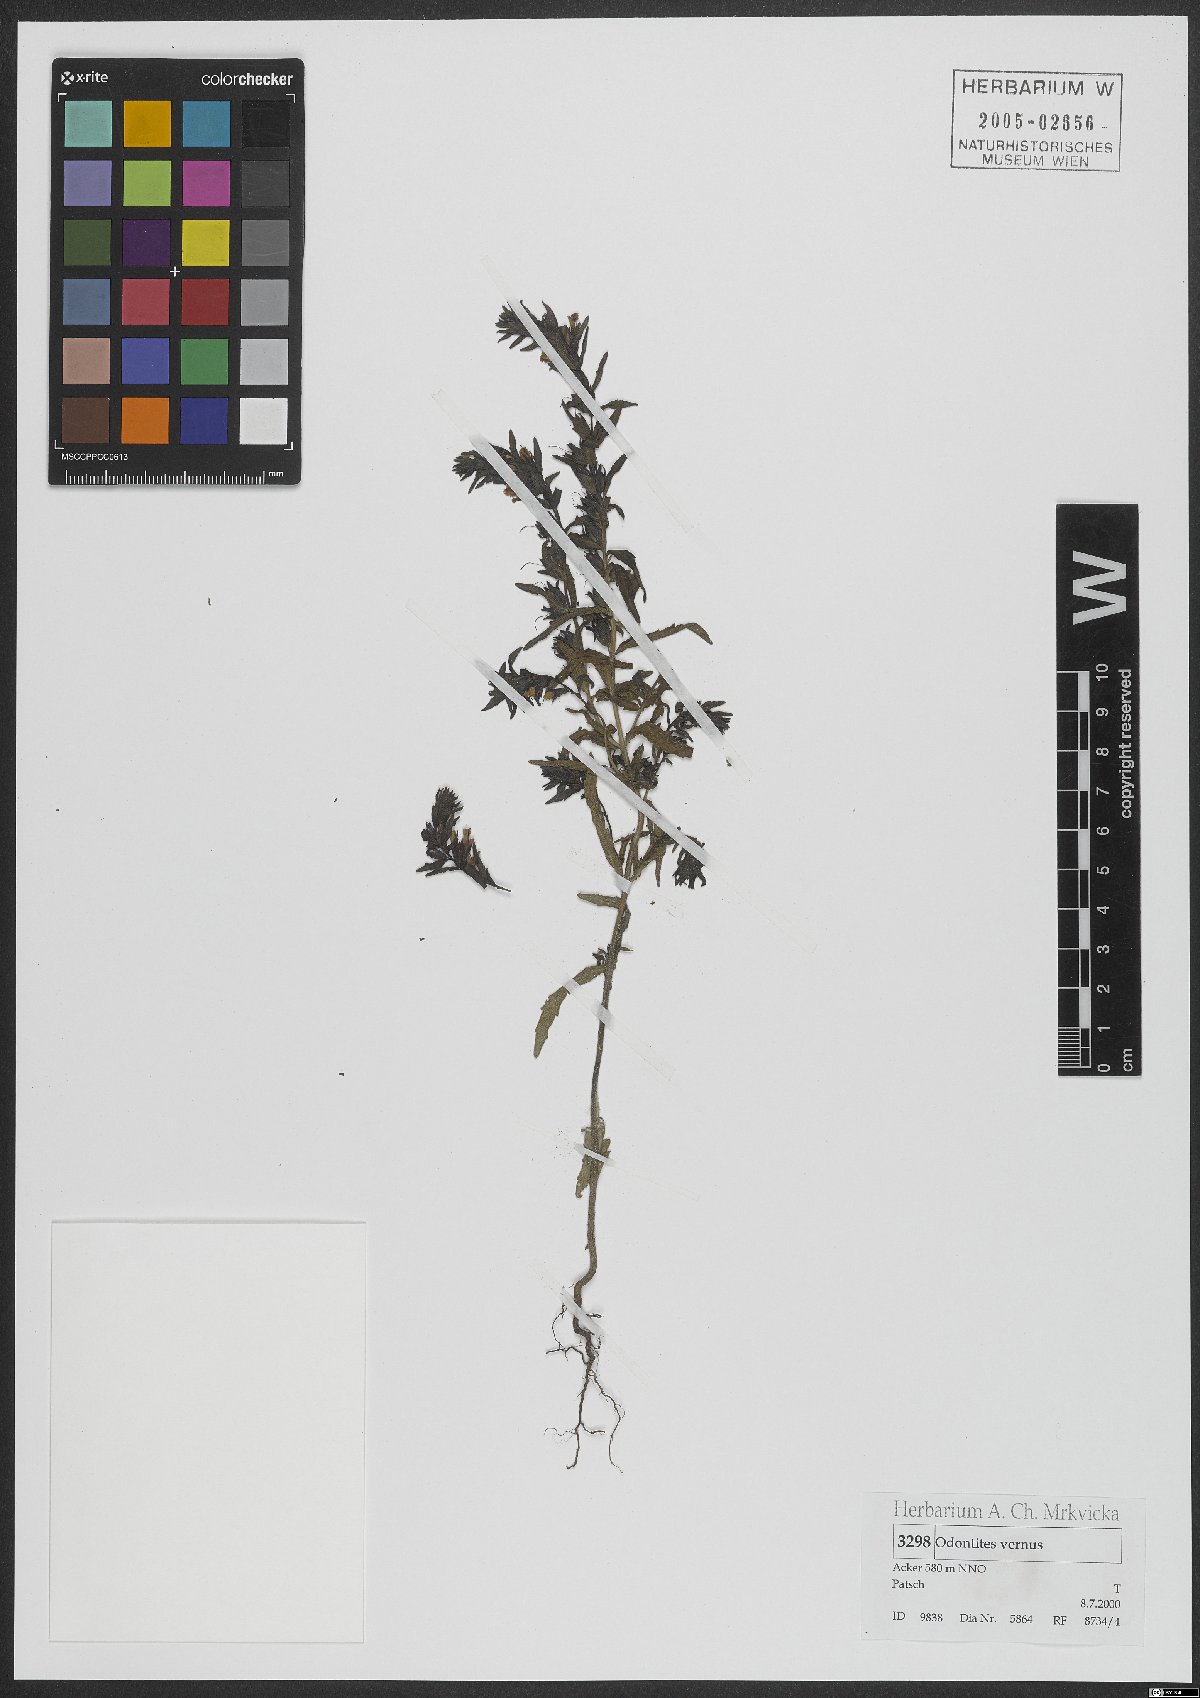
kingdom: Plantae
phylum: Tracheophyta
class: Magnoliopsida
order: Lamiales
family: Orobanchaceae
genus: Odontites
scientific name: Odontites vernus
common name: Red bartsia
